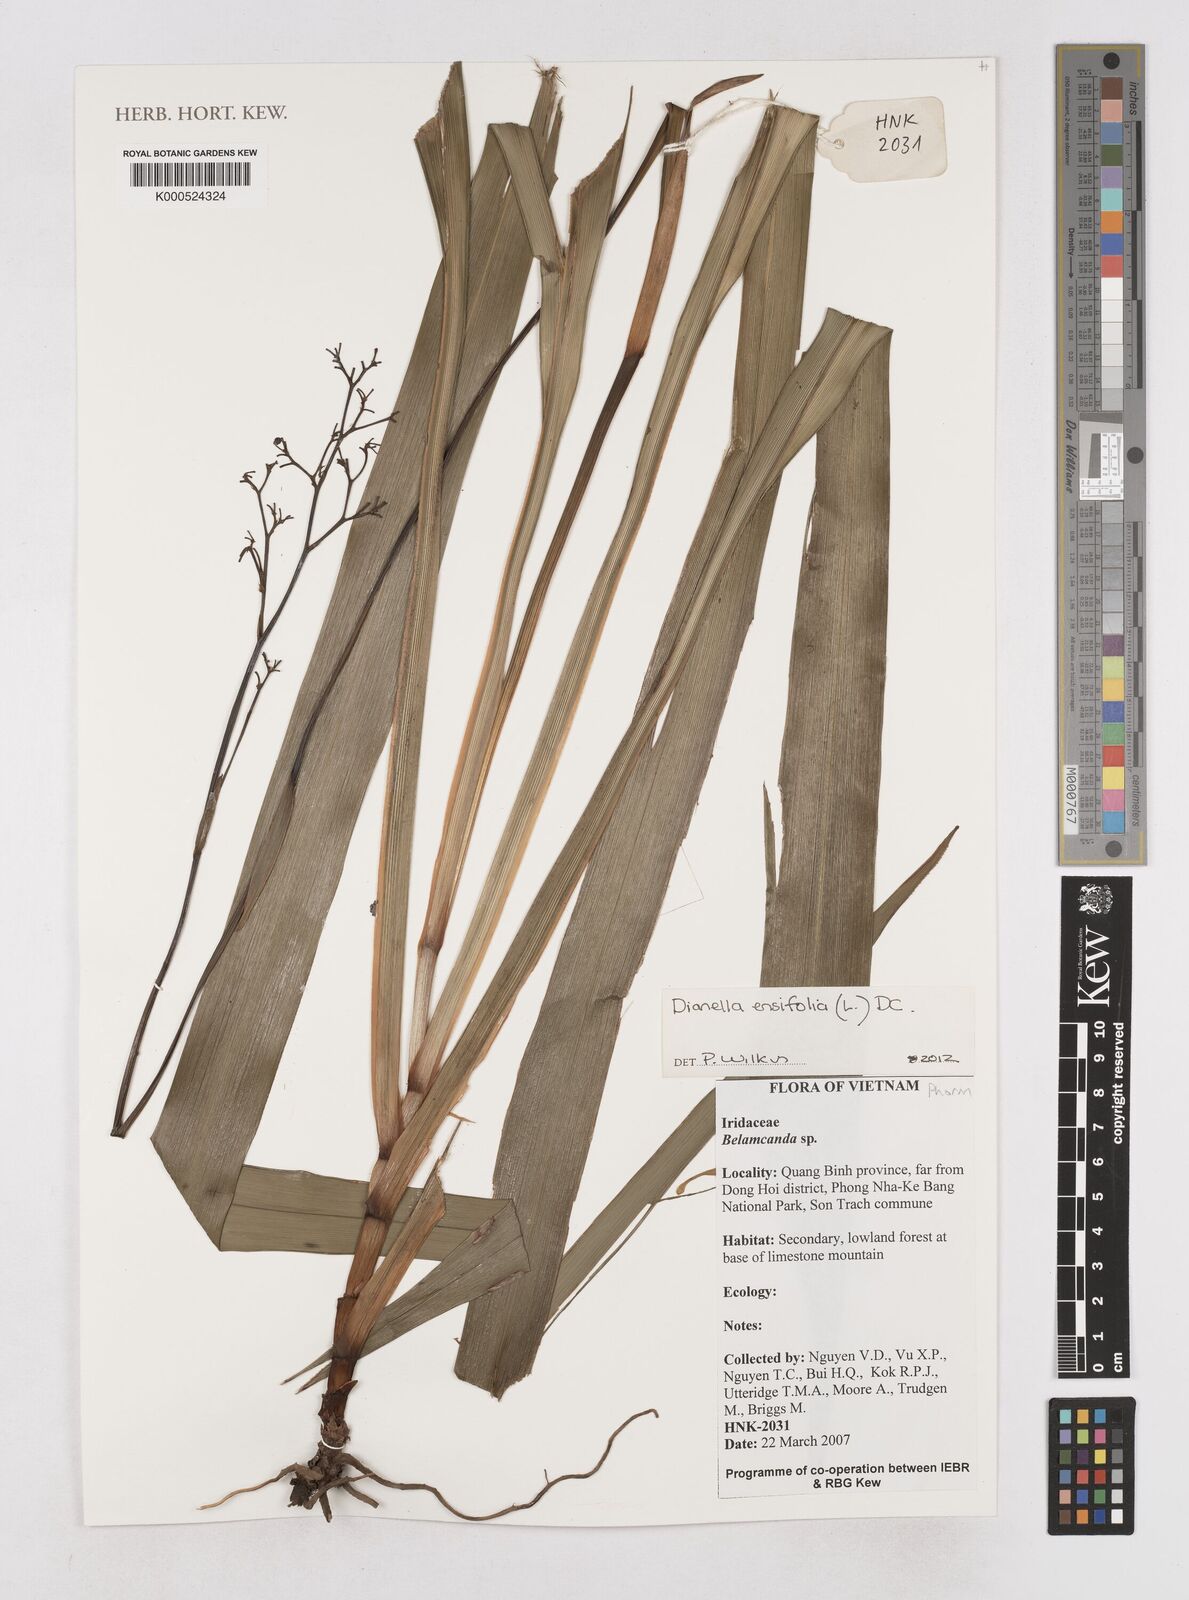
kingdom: Plantae
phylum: Tracheophyta
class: Liliopsida
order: Asparagales
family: Asphodelaceae
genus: Dianella
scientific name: Dianella
